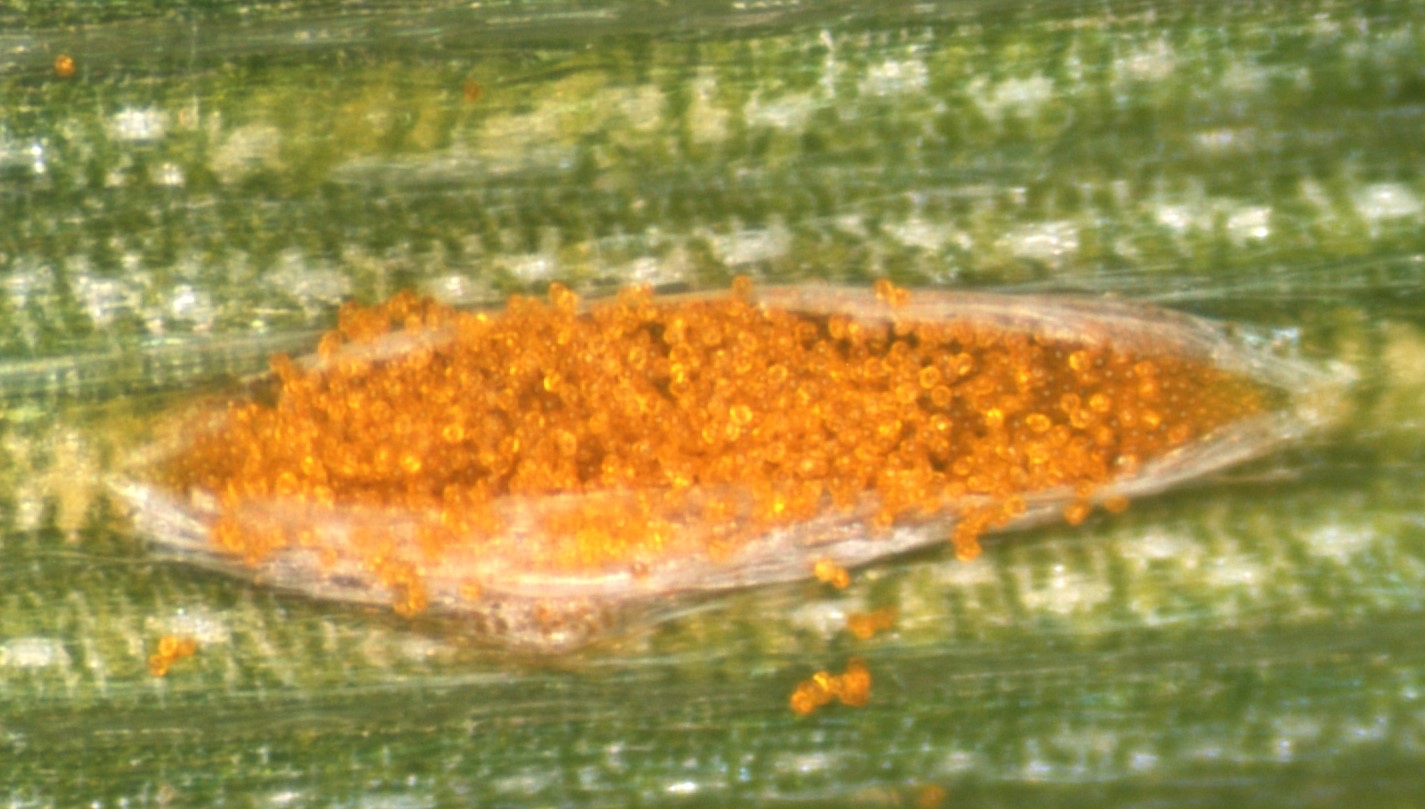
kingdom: Fungi
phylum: Basidiomycota
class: Pucciniomycetes
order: Pucciniales
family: Pucciniaceae
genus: Puccinia
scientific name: Puccinia
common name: tvecellerust
